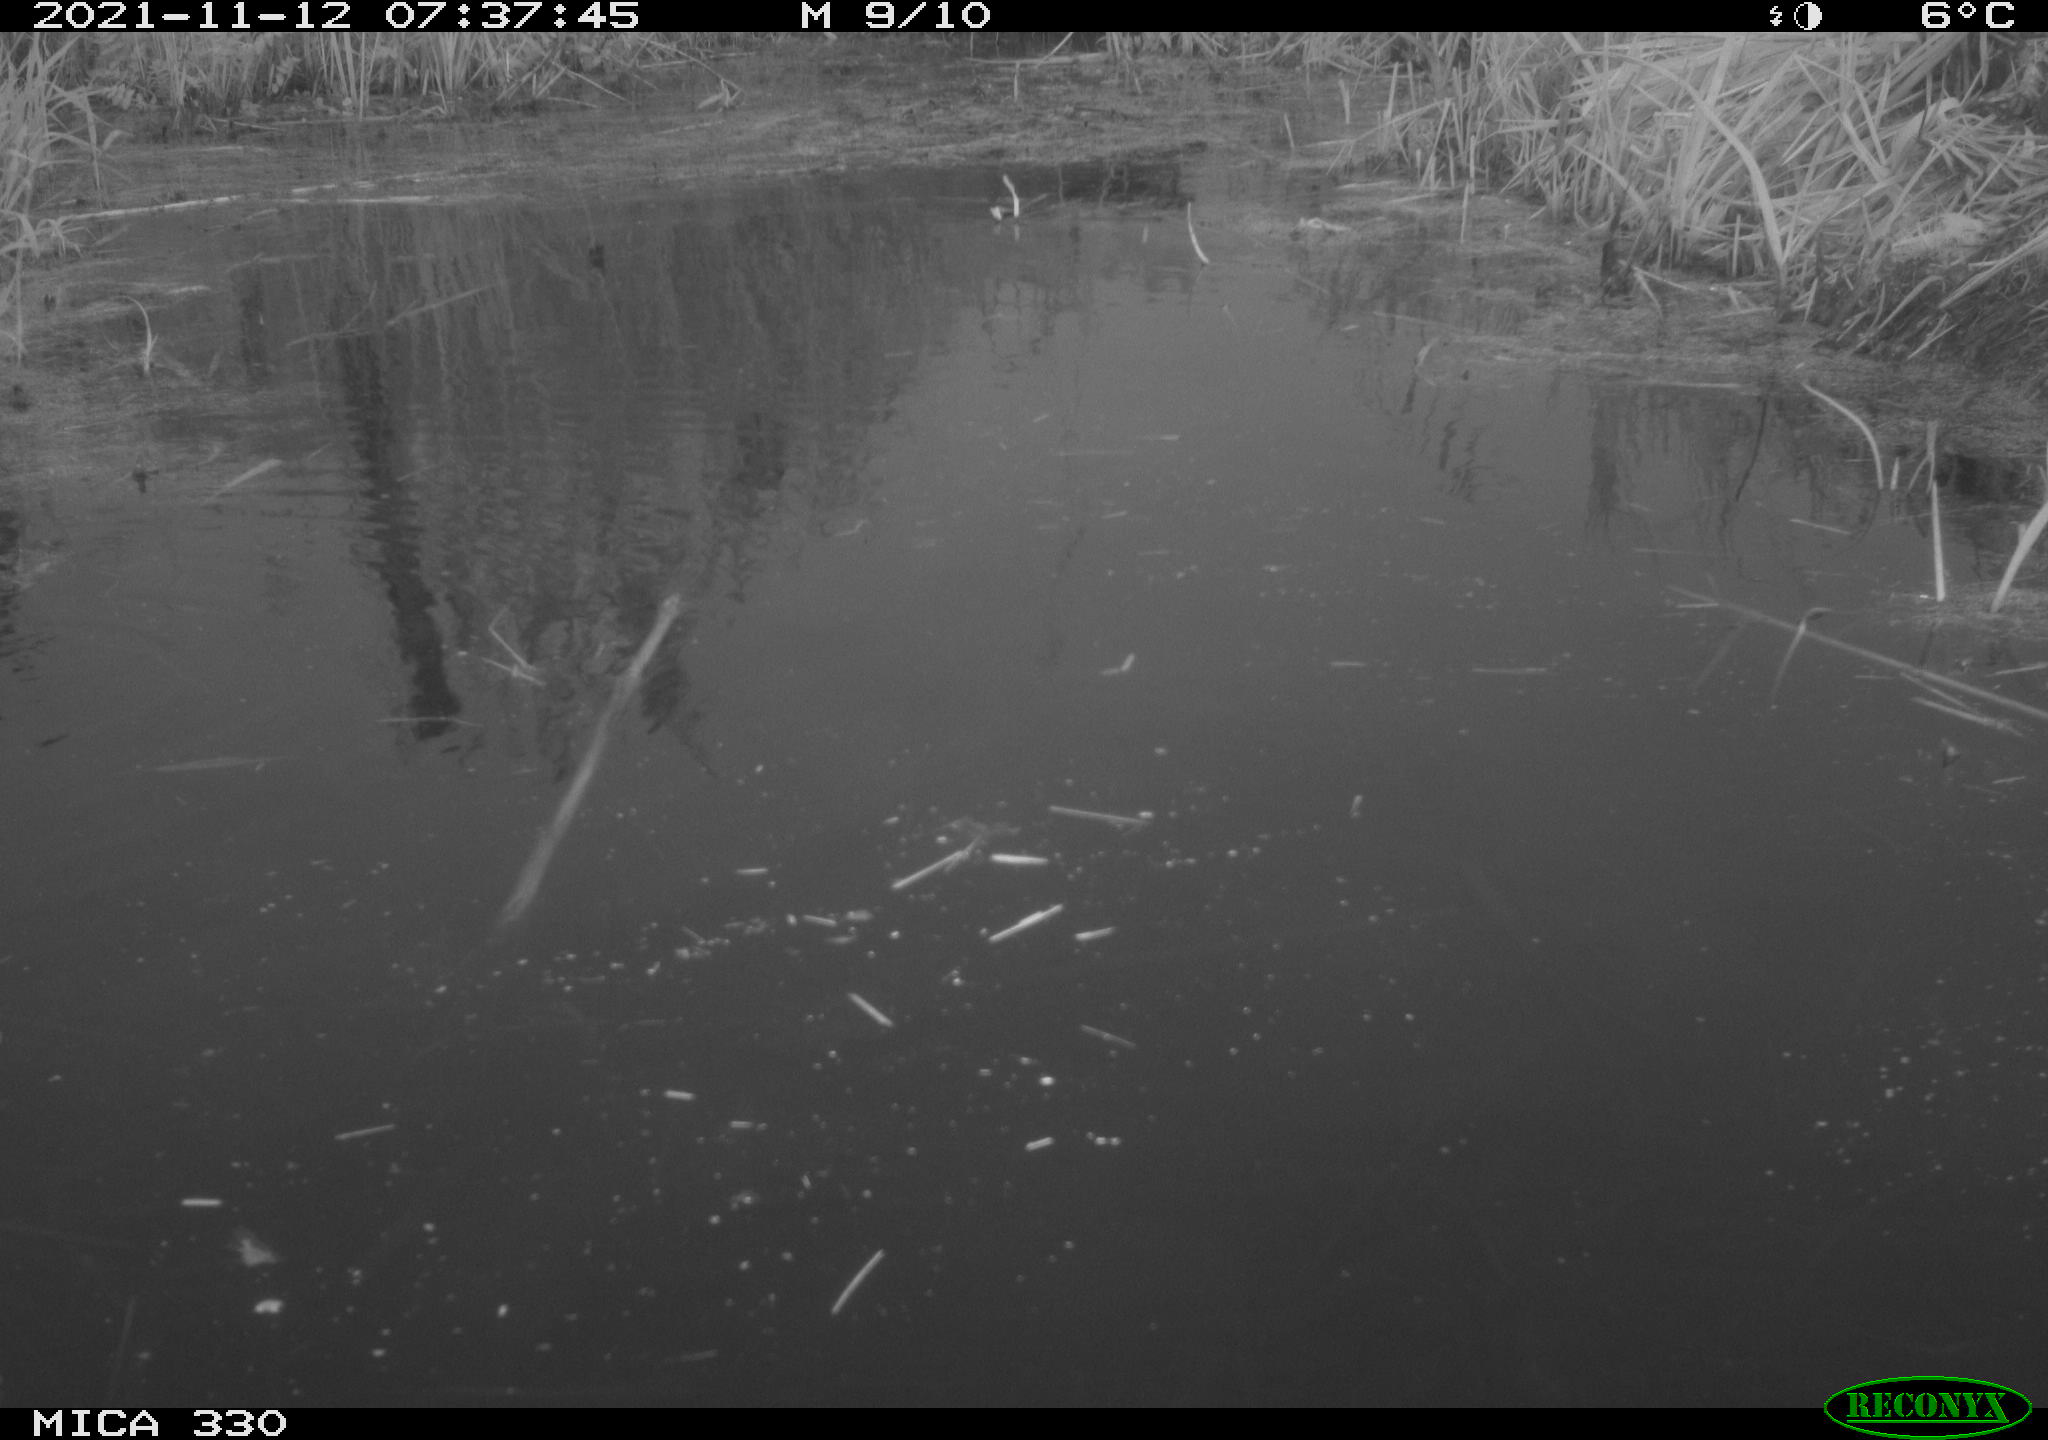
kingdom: Animalia
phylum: Chordata
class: Aves
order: Gruiformes
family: Rallidae
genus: Gallinula
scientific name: Gallinula chloropus
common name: Common moorhen
